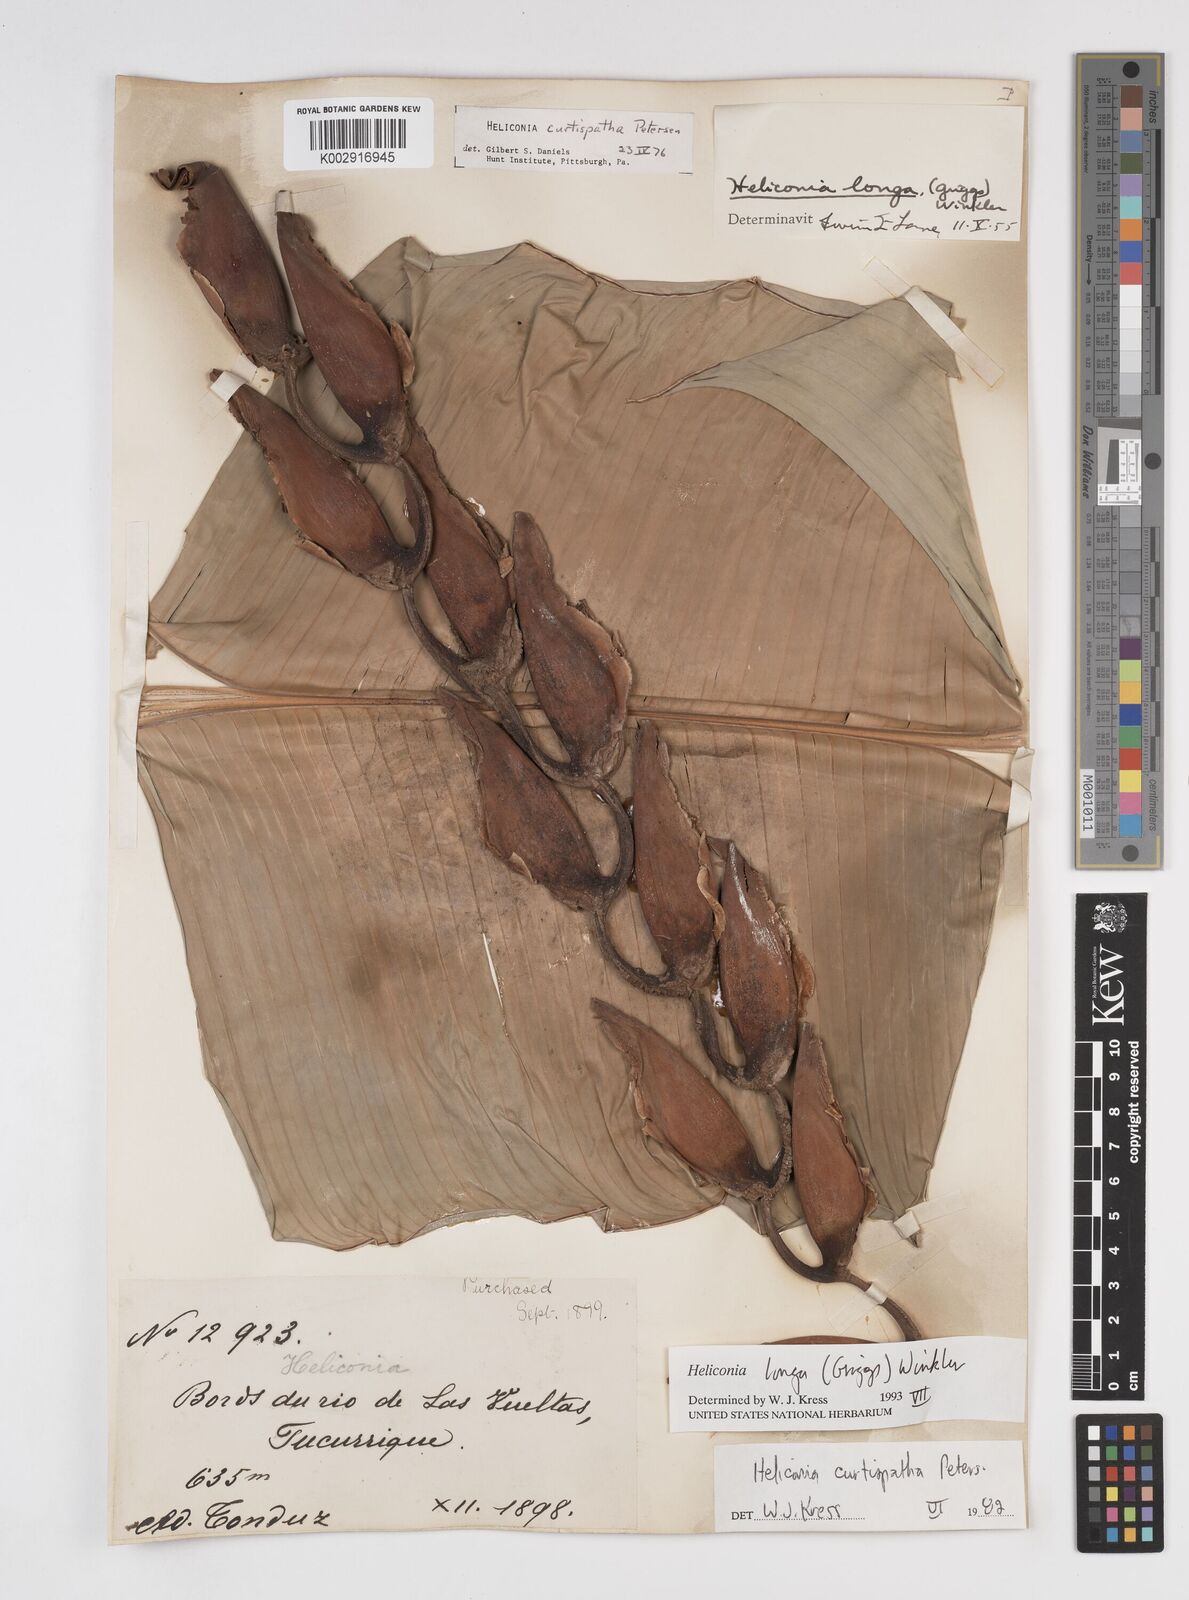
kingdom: Plantae
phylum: Tracheophyta
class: Liliopsida
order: Zingiberales
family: Heliconiaceae
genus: Heliconia
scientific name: Heliconia longa
